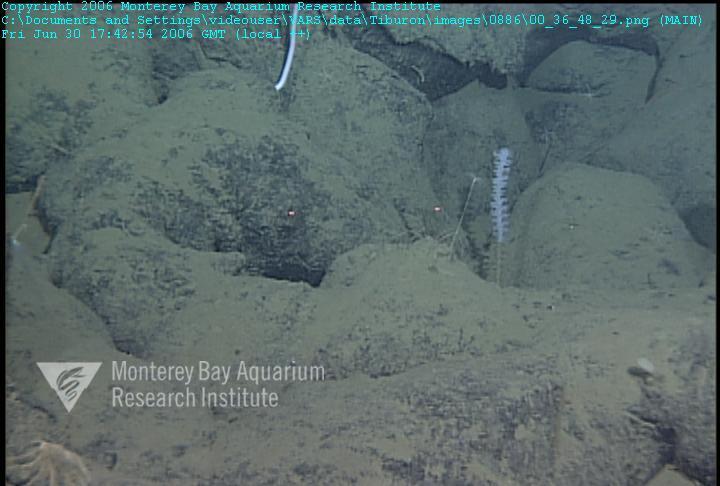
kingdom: Animalia
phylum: Porifera
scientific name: Porifera
